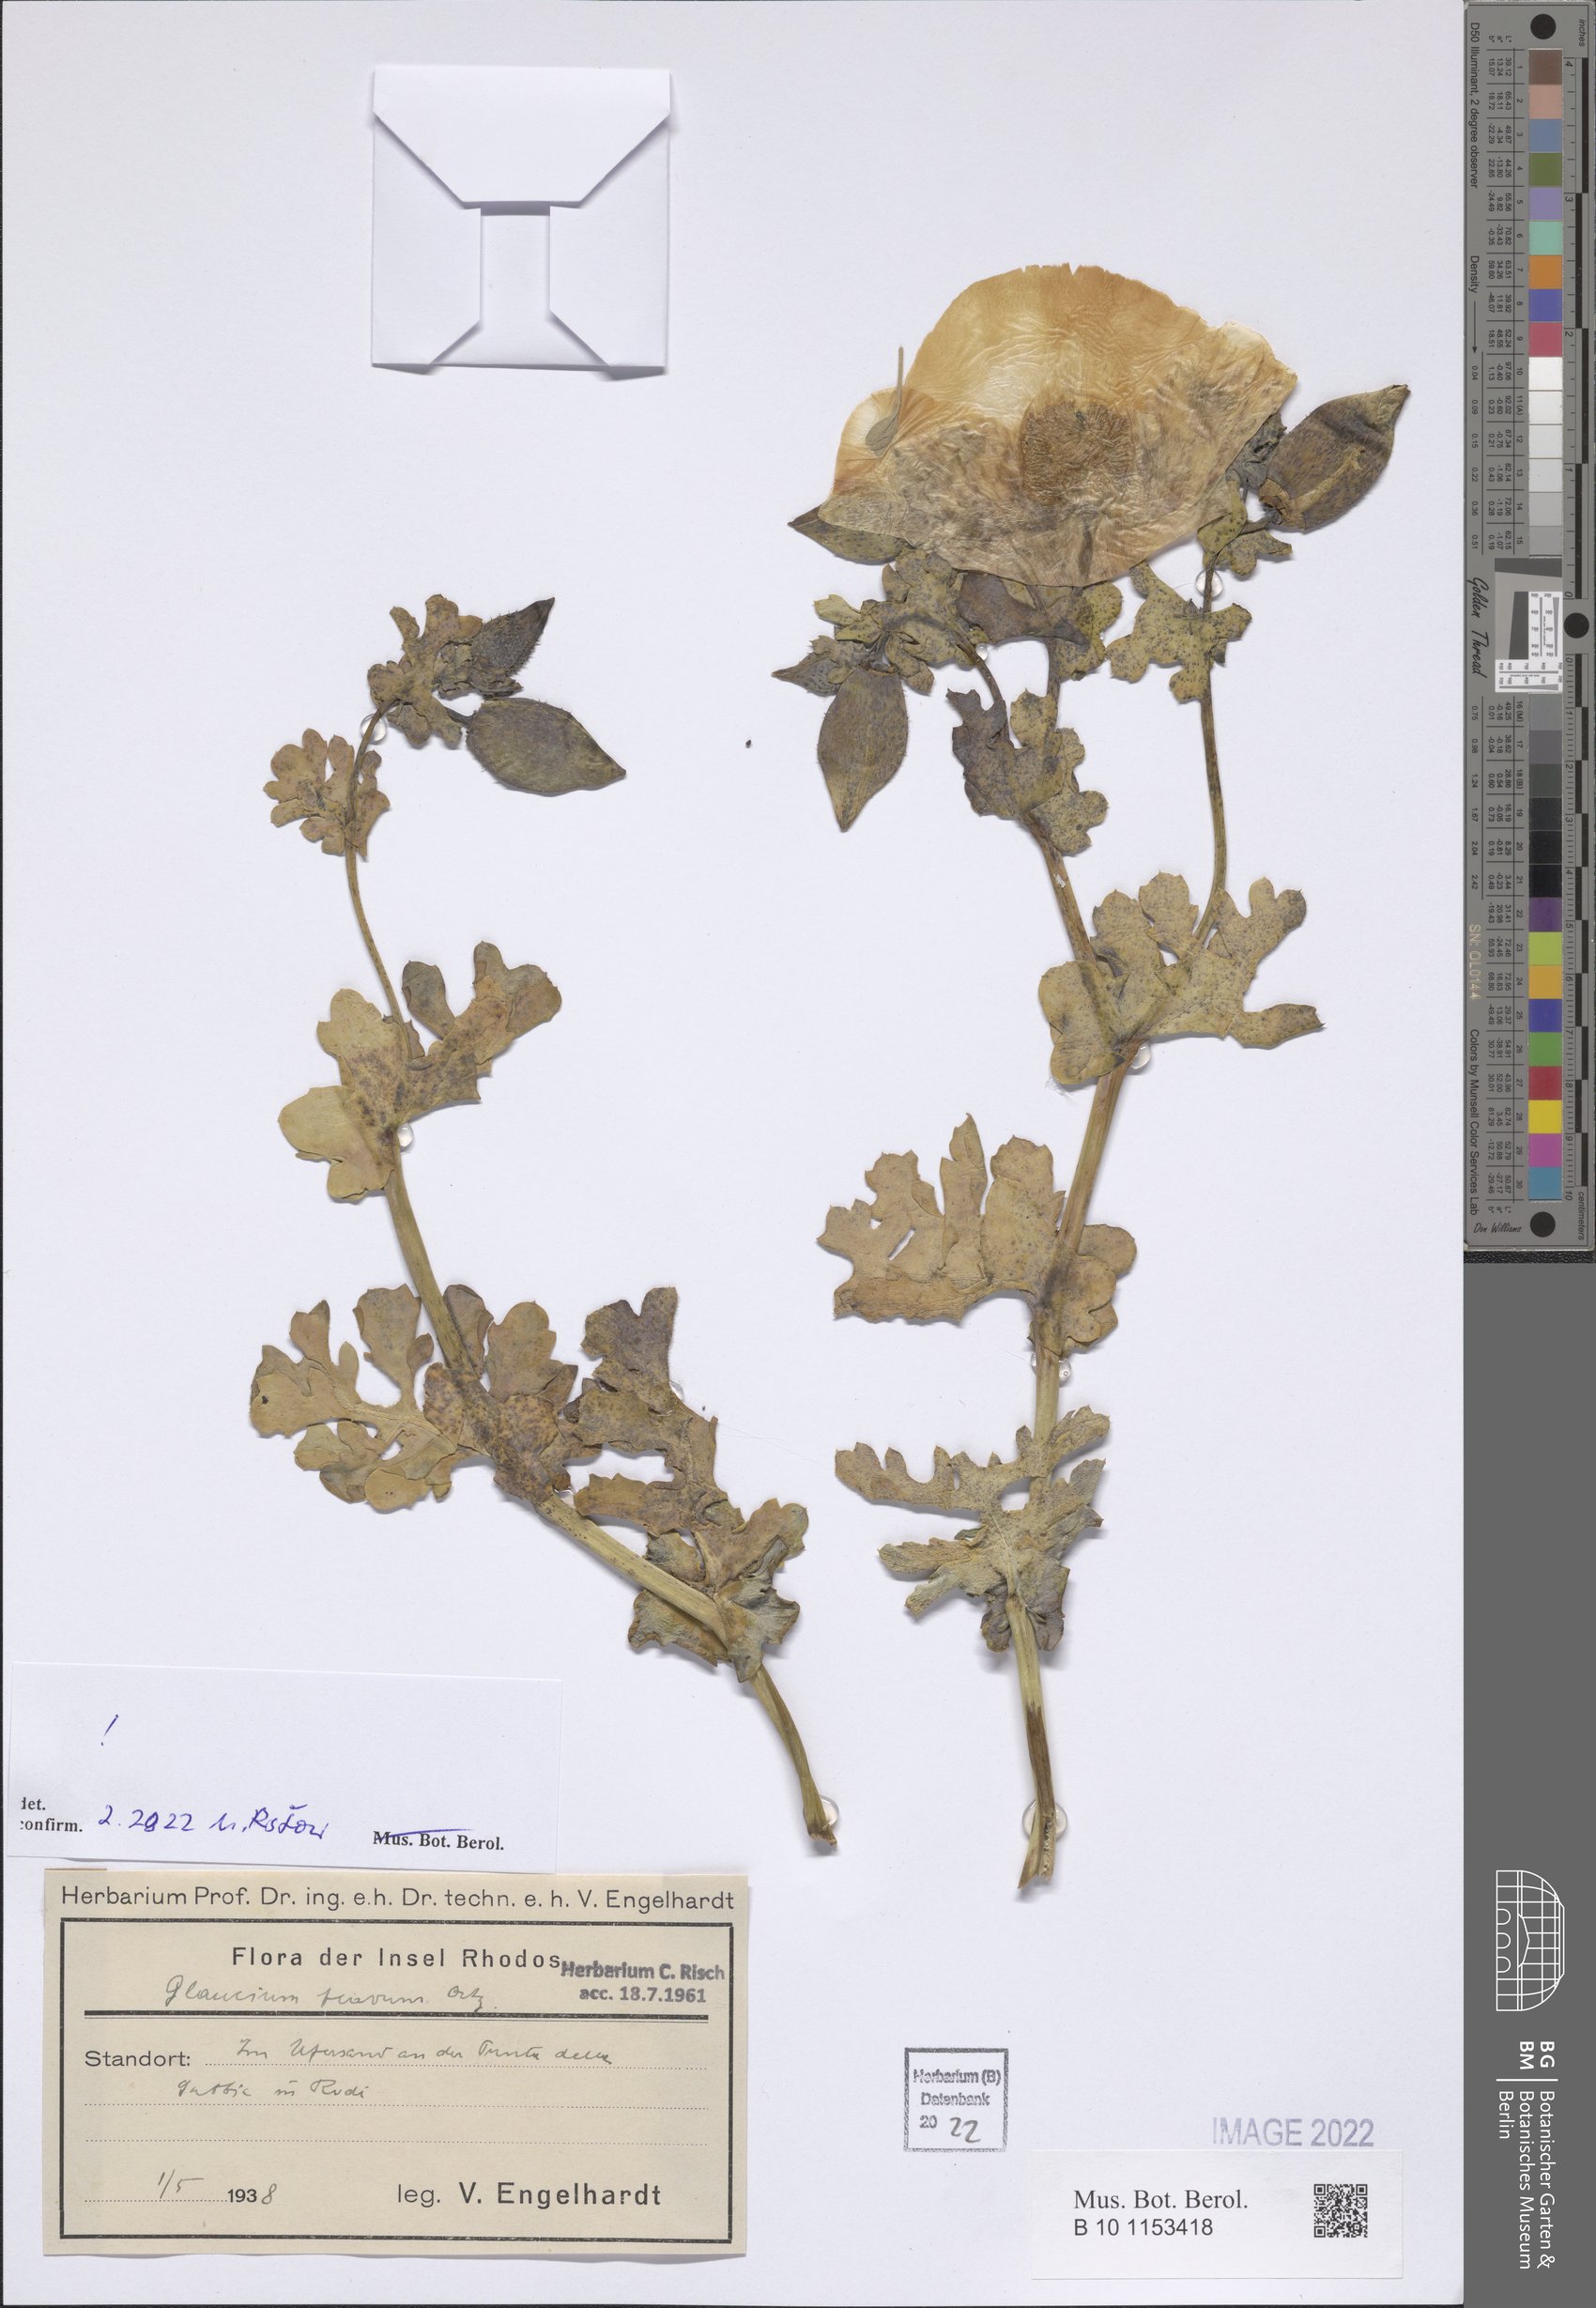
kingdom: Plantae
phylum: Tracheophyta
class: Magnoliopsida
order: Ranunculales
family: Papaveraceae
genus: Glaucium
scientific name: Glaucium flavum
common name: Yellow horned-poppy
